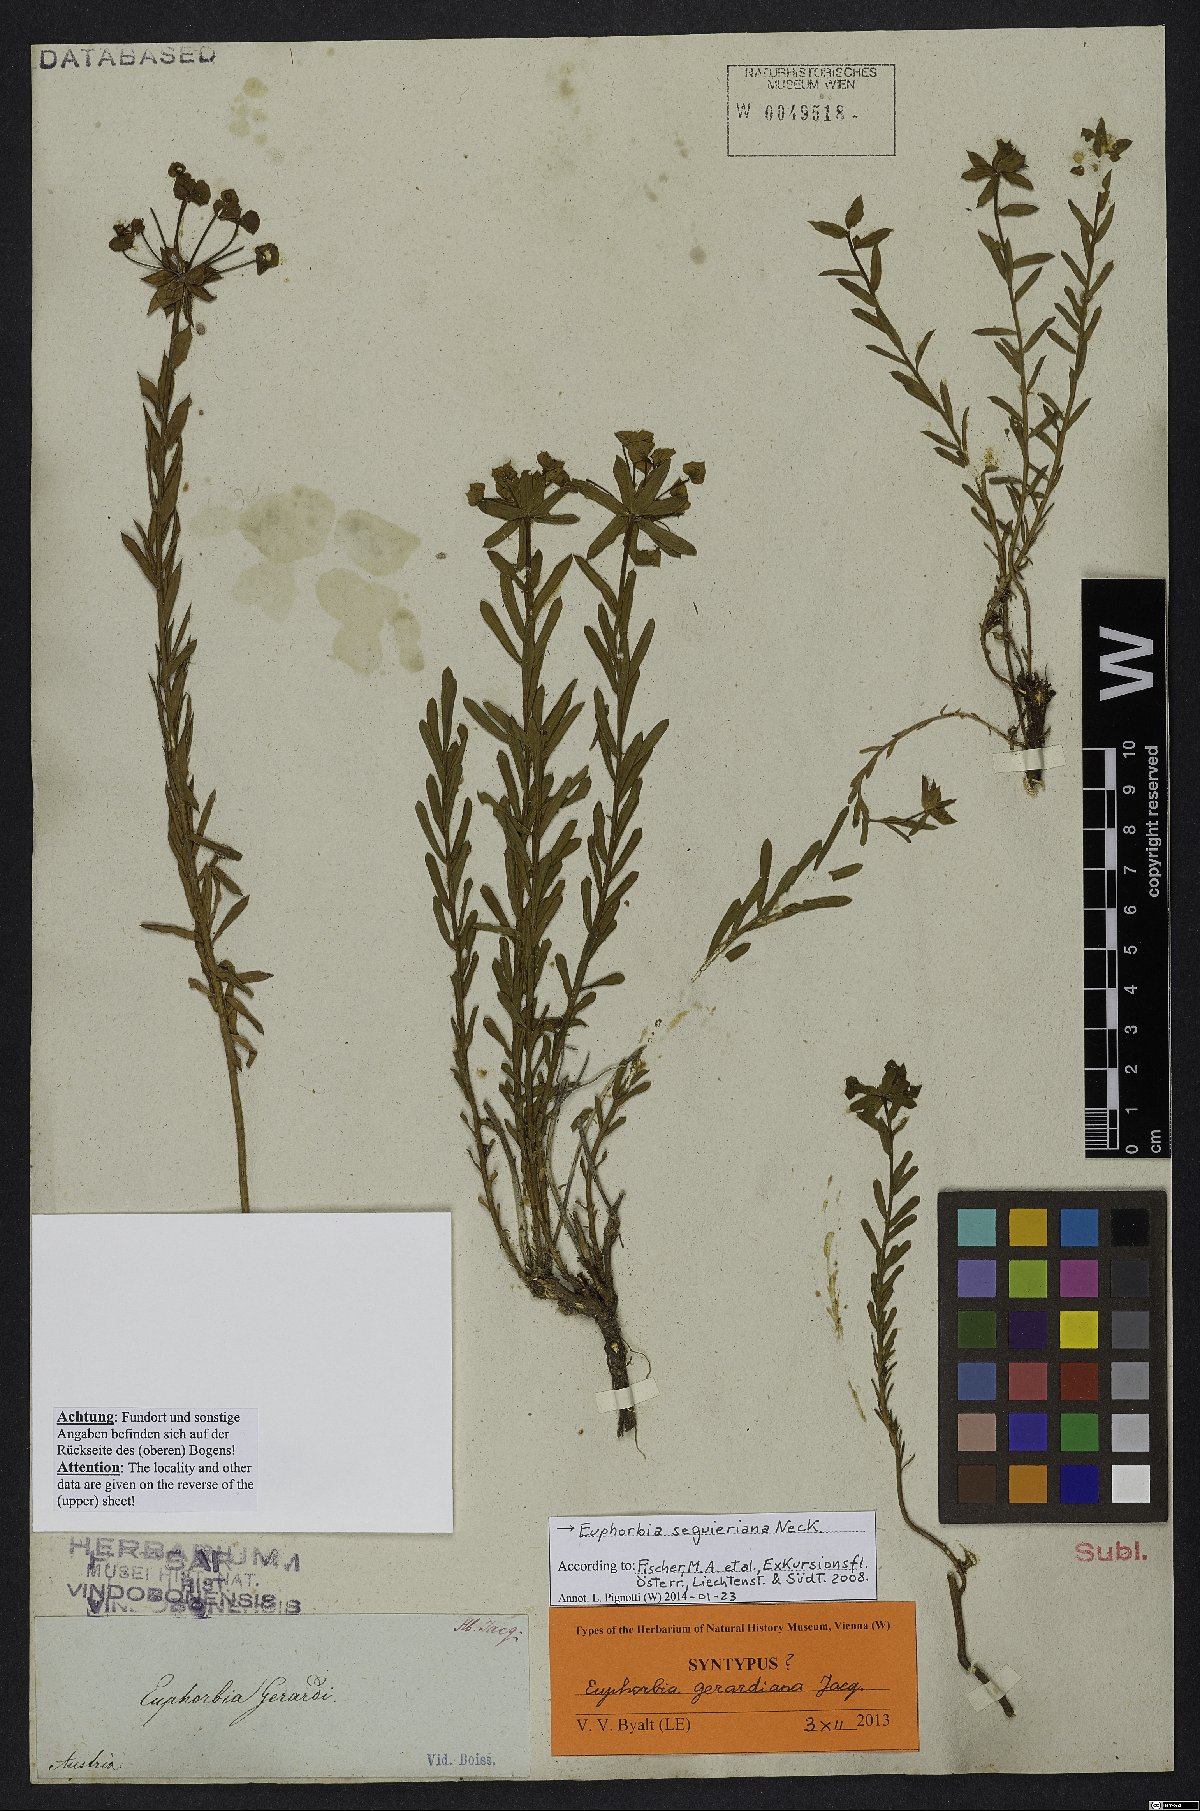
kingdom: Plantae
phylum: Tracheophyta
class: Magnoliopsida
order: Malpighiales
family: Euphorbiaceae
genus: Euphorbia
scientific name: Euphorbia seguieriana
